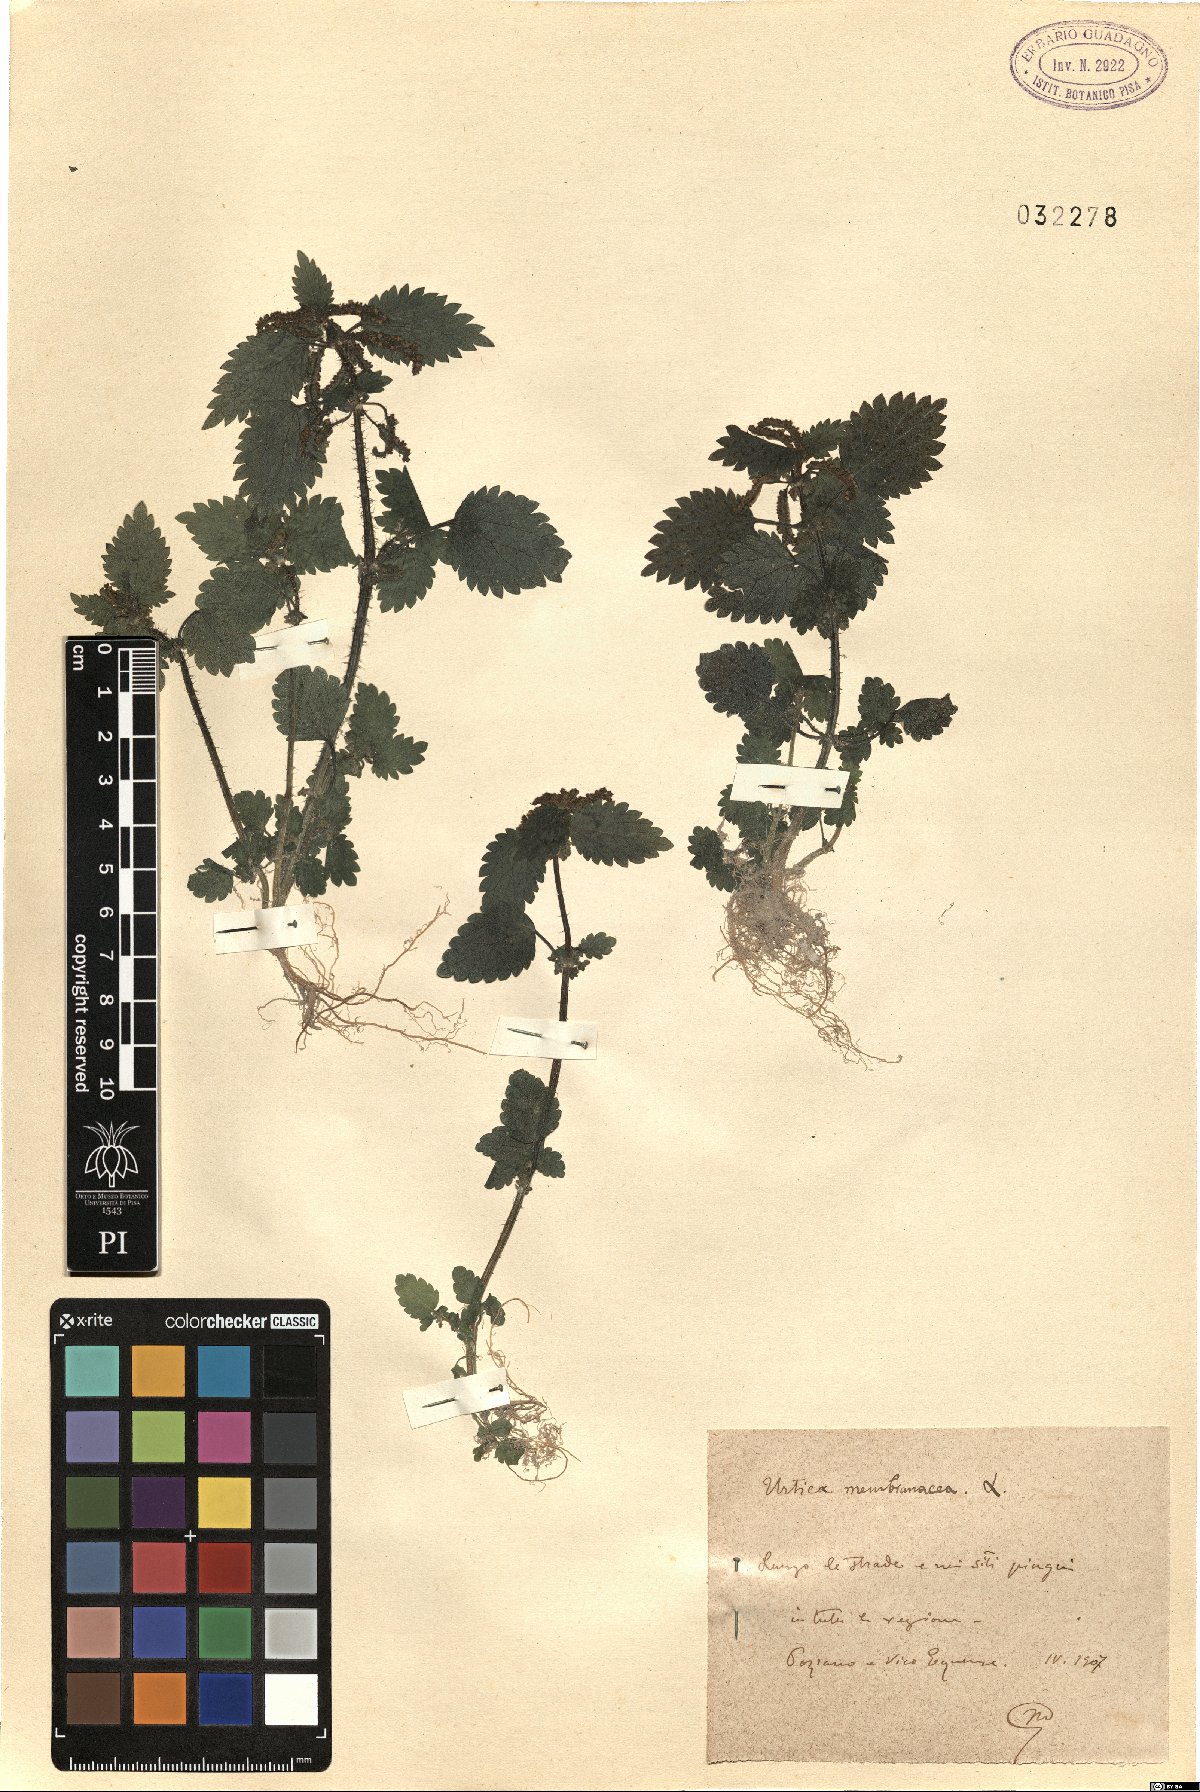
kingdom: Plantae
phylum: Tracheophyta
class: Magnoliopsida
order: Rosales
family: Urticaceae
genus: Urtica
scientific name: Urtica membranacea
